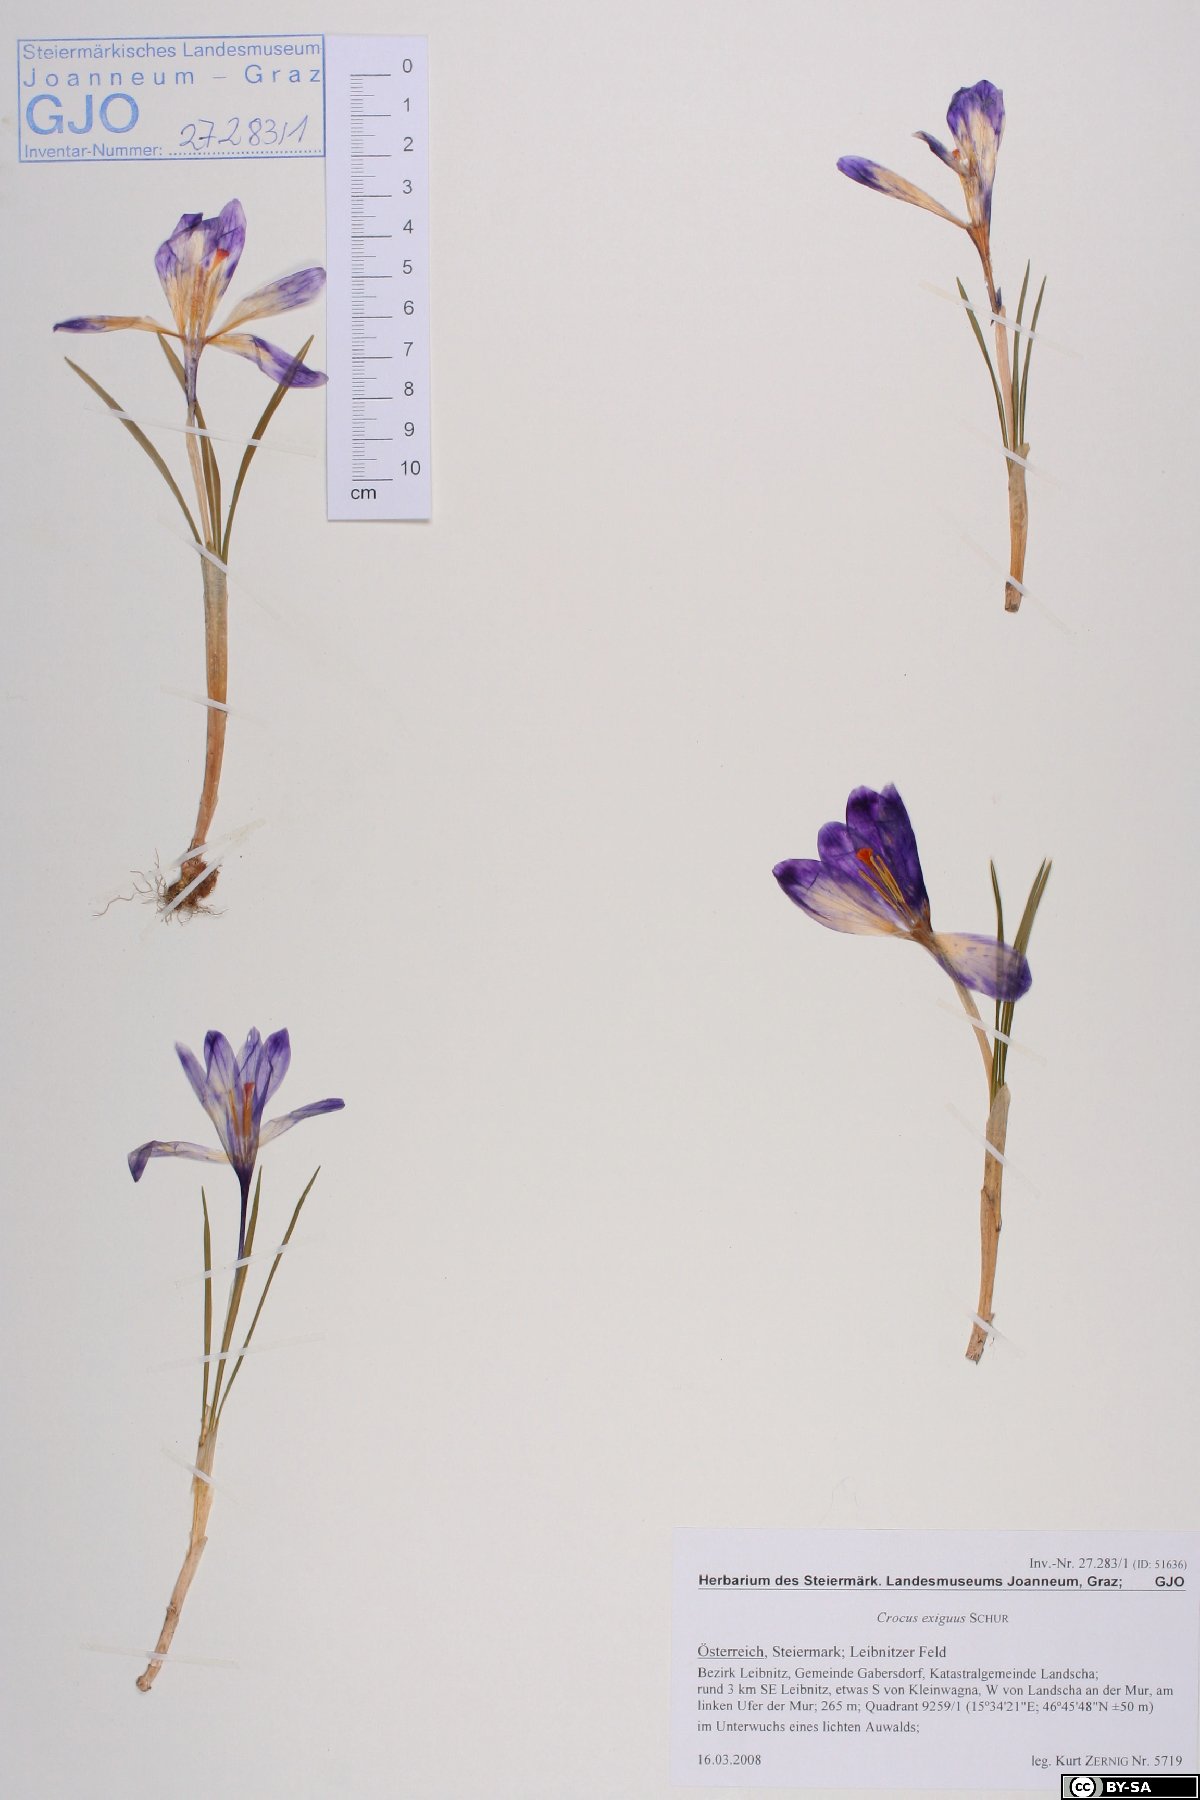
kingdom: Plantae
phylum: Tracheophyta
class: Liliopsida
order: Asparagales
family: Iridaceae
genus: Crocus
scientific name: Crocus heuffelianus
